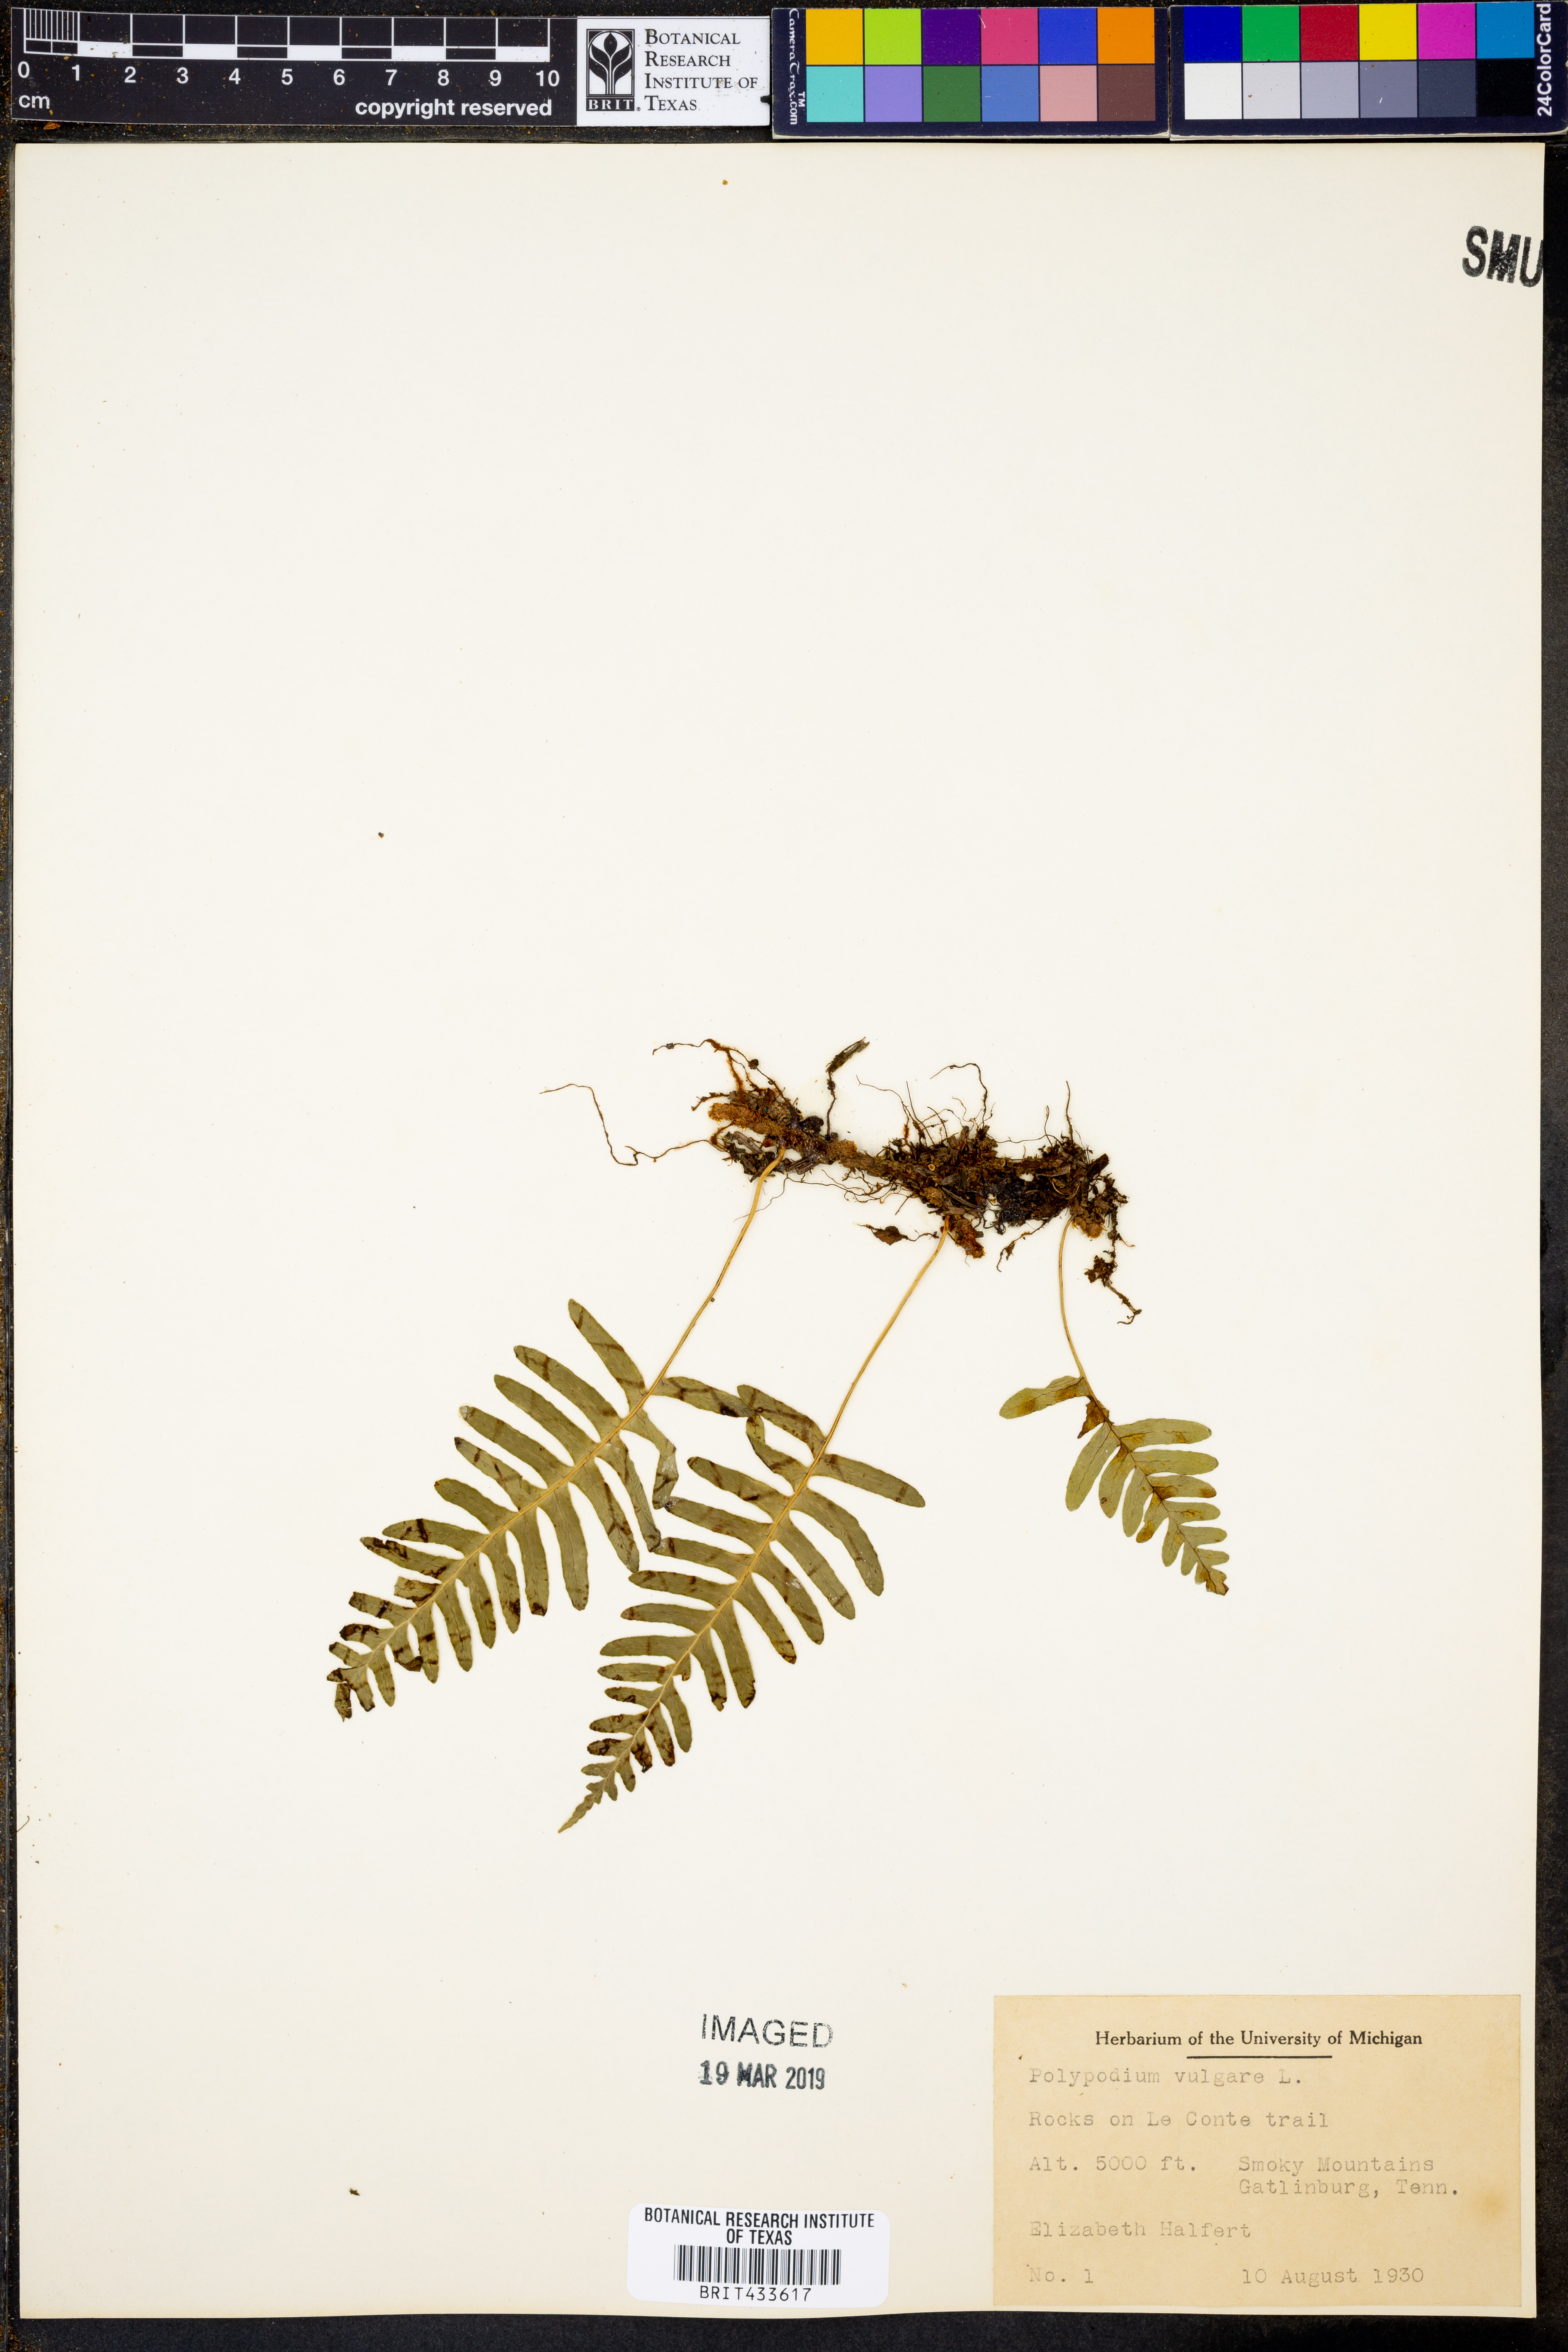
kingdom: Plantae
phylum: Tracheophyta
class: Polypodiopsida
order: Polypodiales
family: Polypodiaceae
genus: Polypodium
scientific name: Polypodium vulgare
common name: Common polypody
